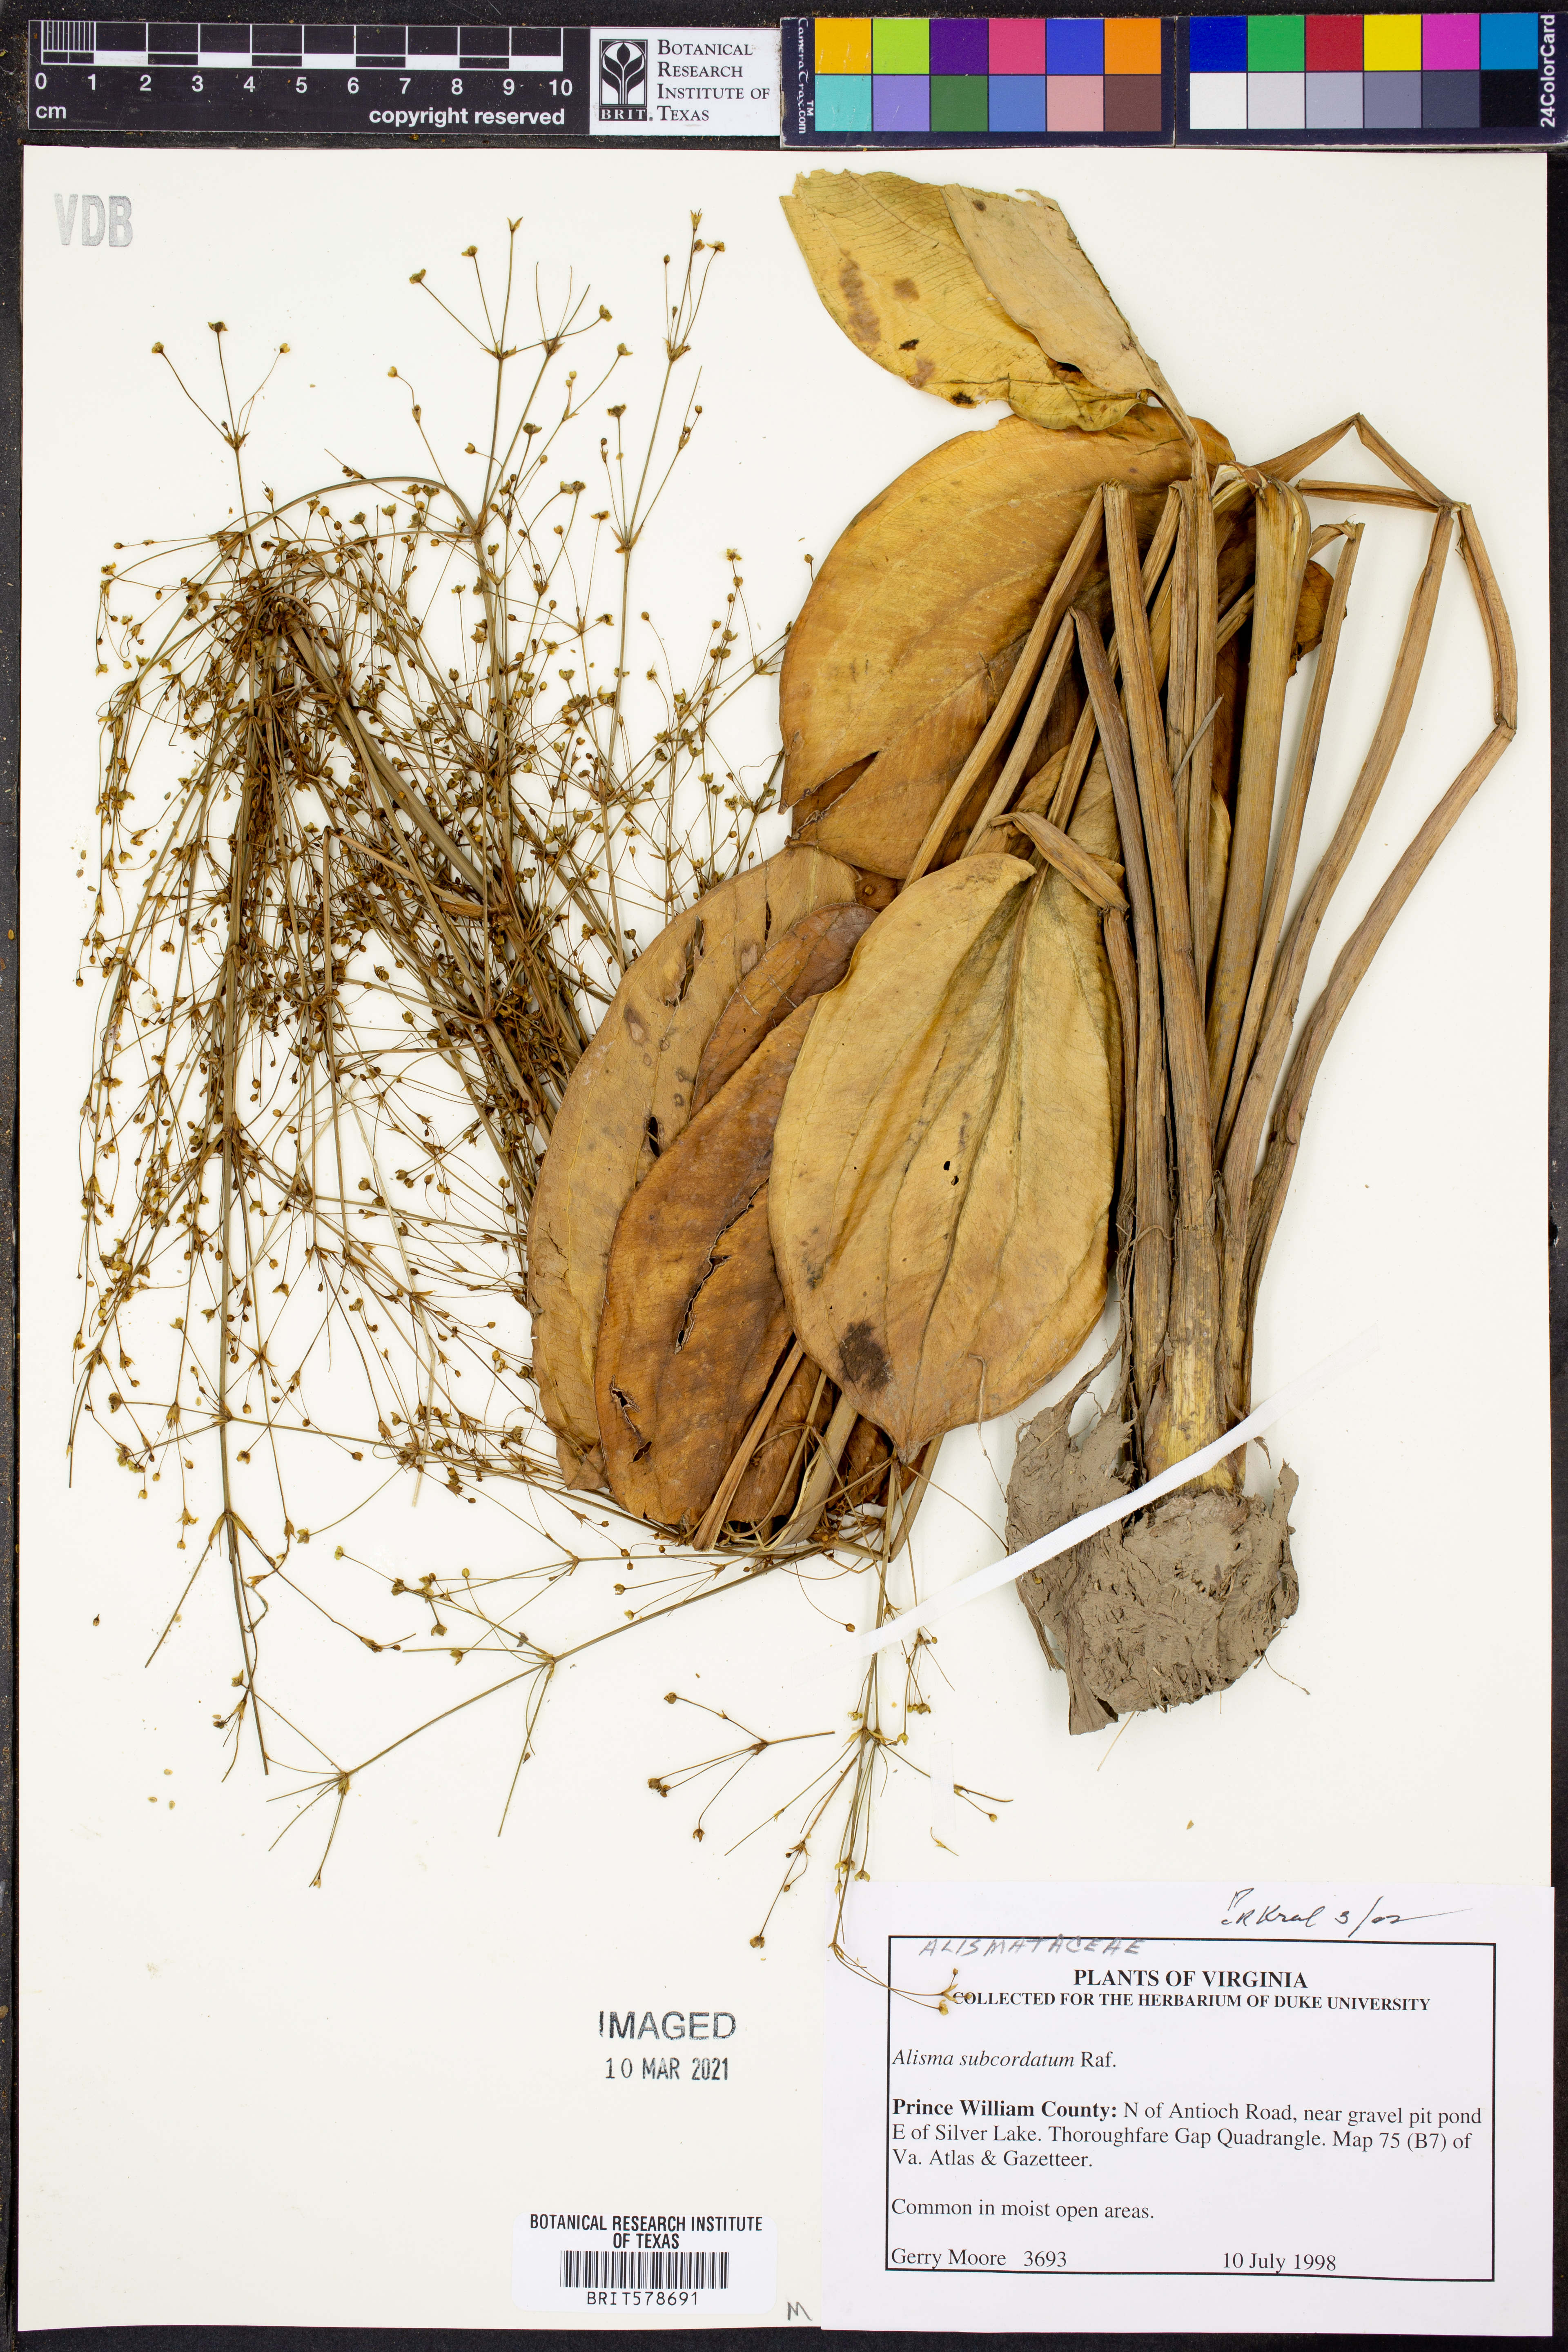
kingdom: Plantae
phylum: Tracheophyta
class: Liliopsida
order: Alismatales
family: Alismataceae
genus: Alisma
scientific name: Alisma subcordatum
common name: Southern water-plantain
